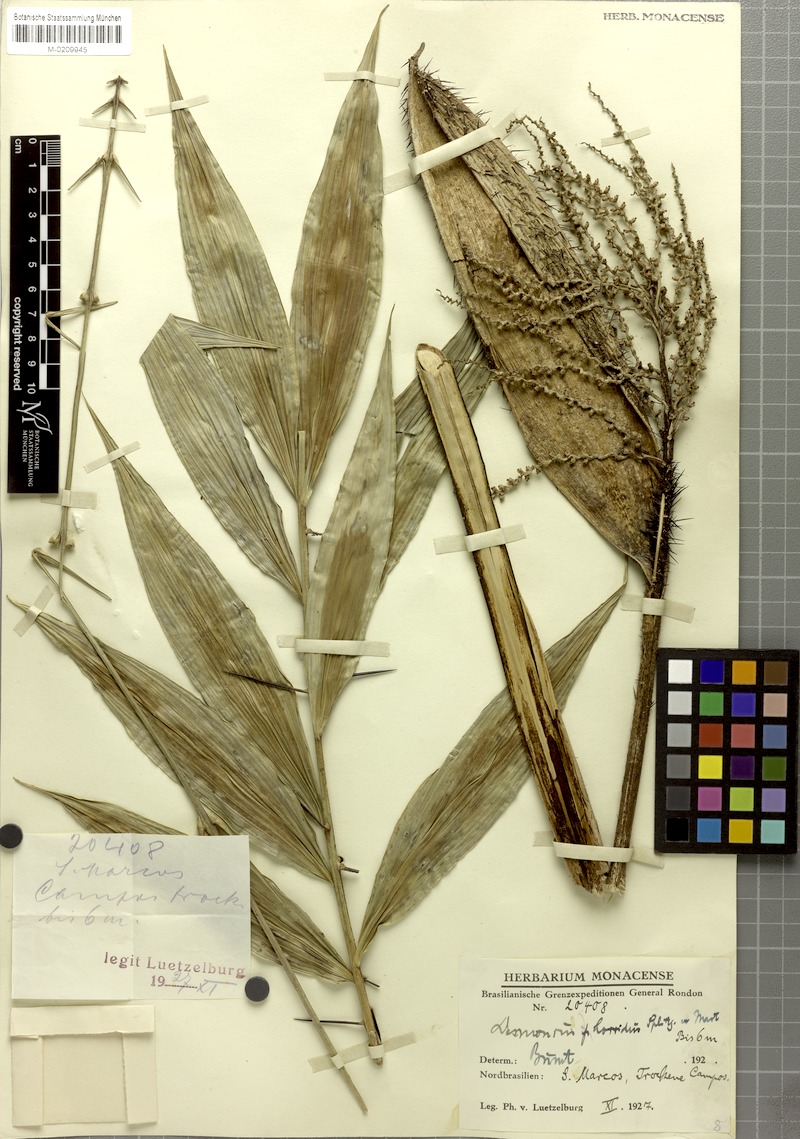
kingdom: Plantae
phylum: Tracheophyta
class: Liliopsida
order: Arecales
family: Arecaceae
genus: Desmoncus
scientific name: Desmoncus orthacanthos
